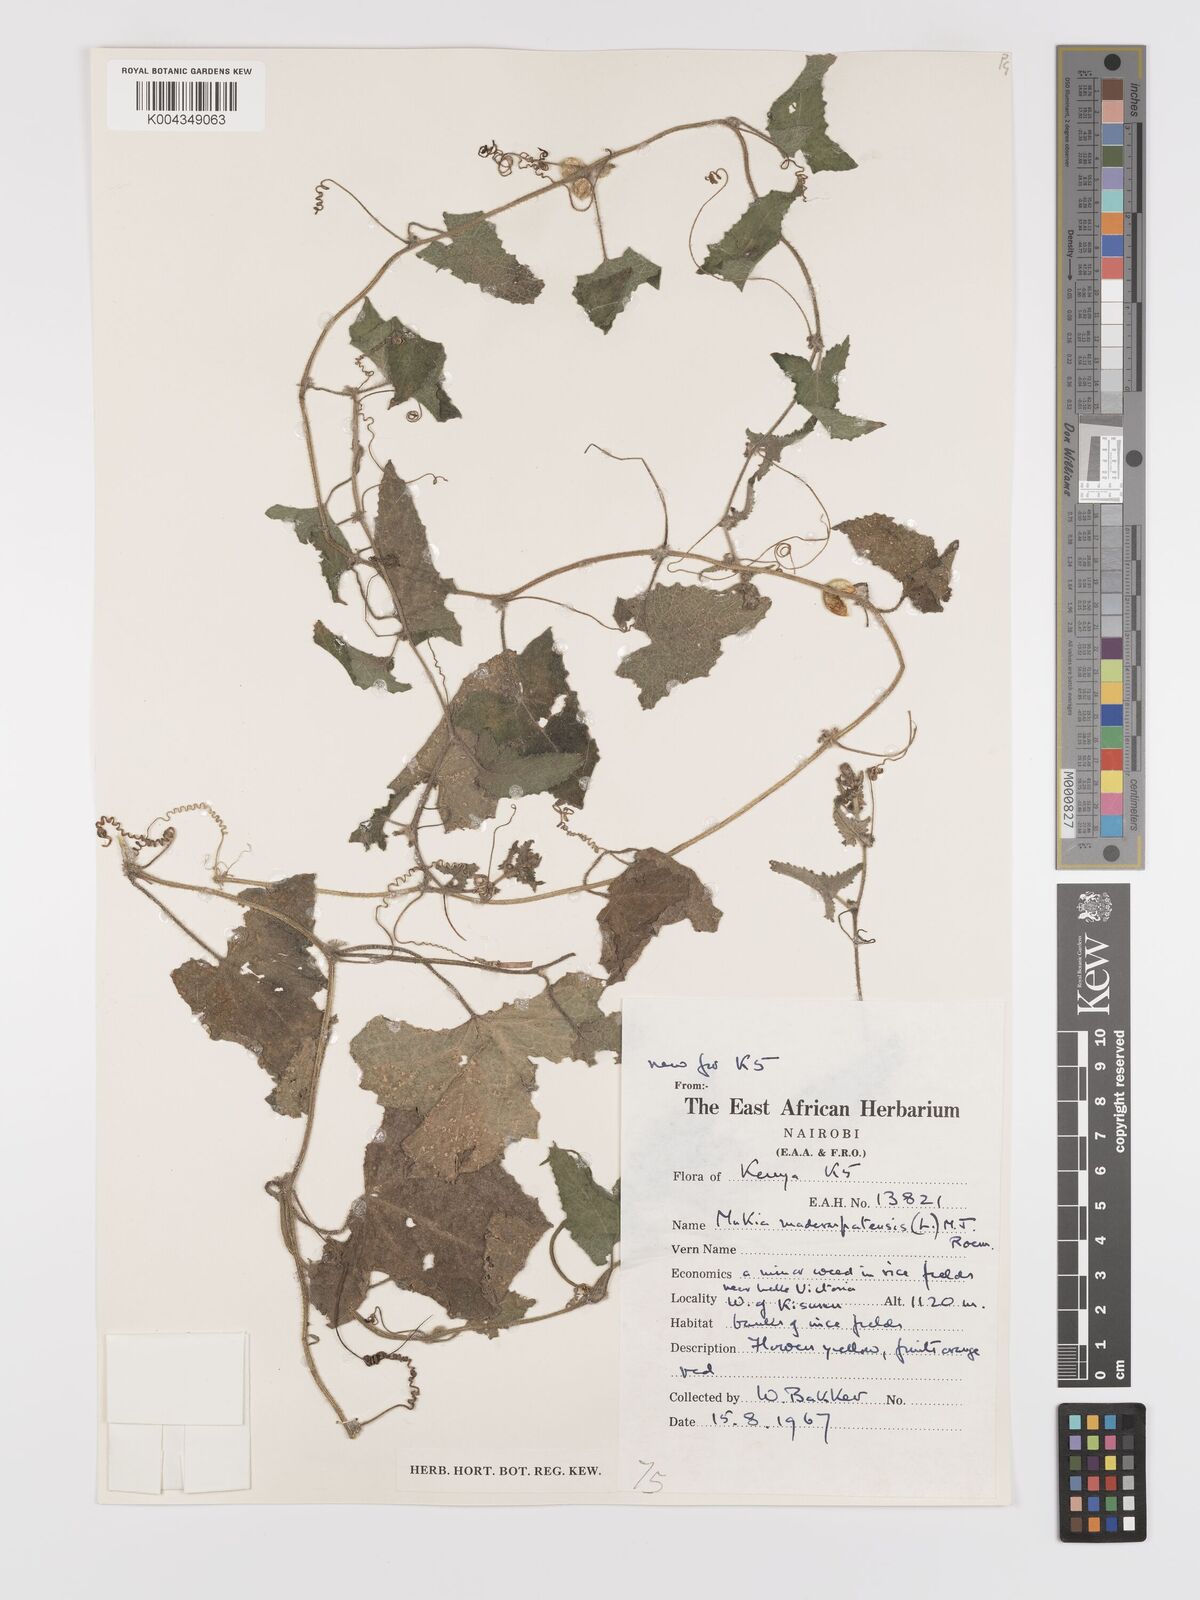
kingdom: Plantae
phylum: Tracheophyta
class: Magnoliopsida
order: Cucurbitales
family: Cucurbitaceae
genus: Cucumis
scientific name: Cucumis maderaspatanus
